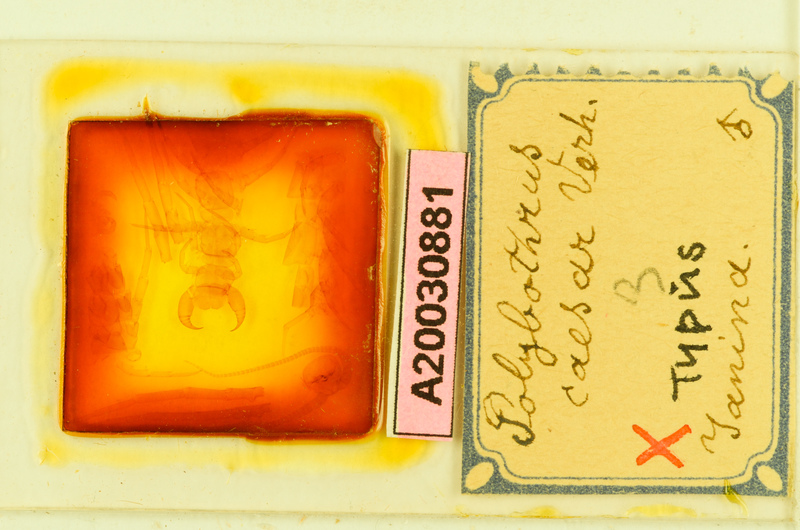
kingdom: Animalia
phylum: Arthropoda
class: Chilopoda
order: Lithobiomorpha
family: Lithobiidae
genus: Polybothrus
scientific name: Polybothrus caesar
